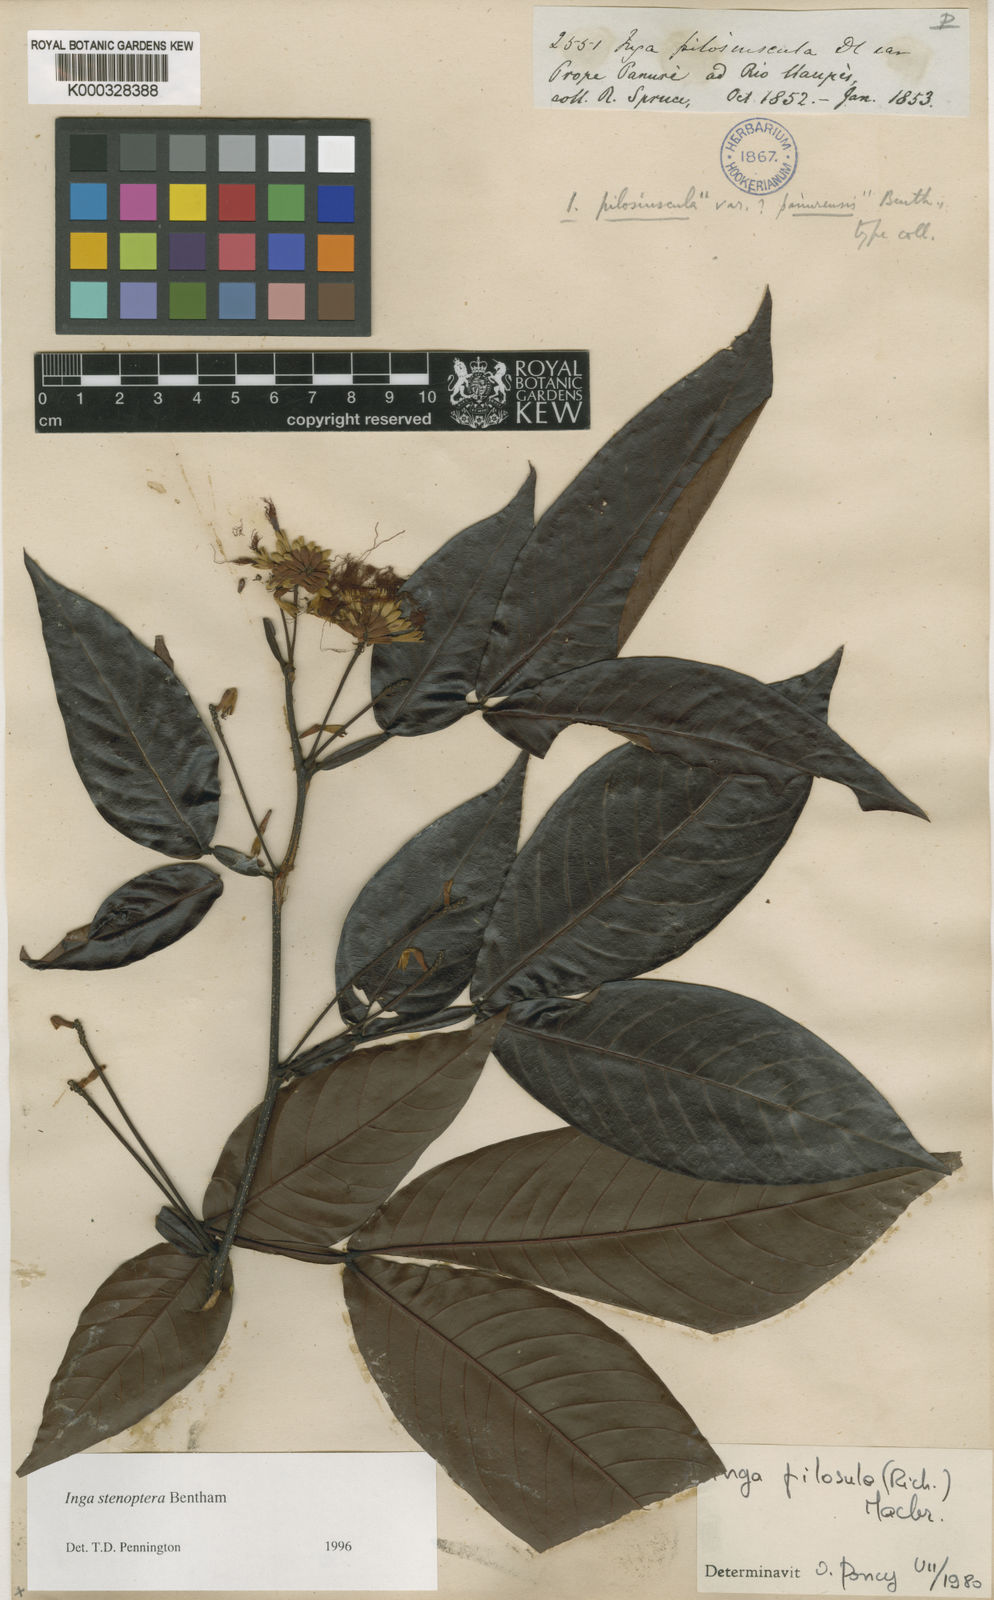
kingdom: Plantae
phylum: Tracheophyta
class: Magnoliopsida
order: Fabales
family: Fabaceae
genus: Inga
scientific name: Inga stenoptera
